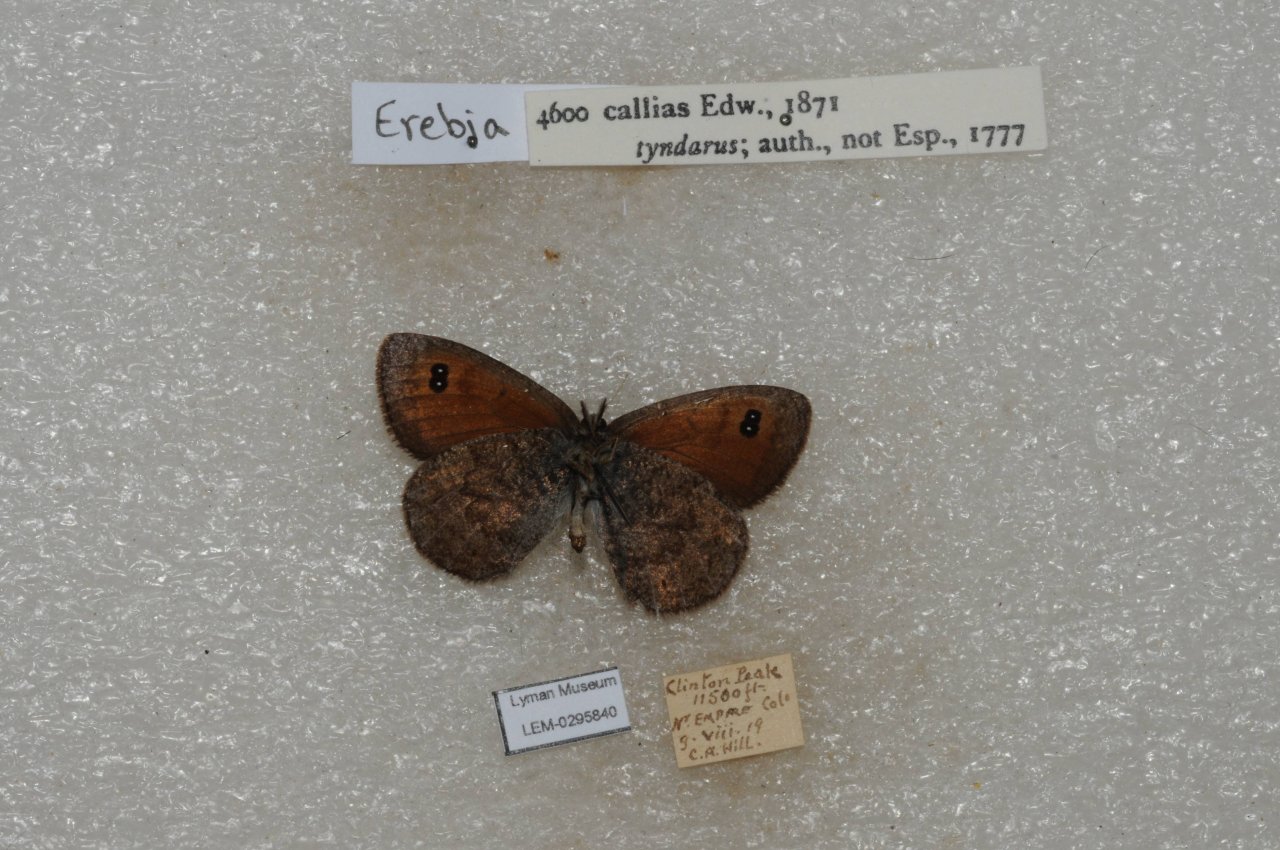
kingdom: Animalia
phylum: Arthropoda
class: Insecta
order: Lepidoptera
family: Nymphalidae
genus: Erebia
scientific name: Erebia tyndarus
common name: Colorado Alpine
